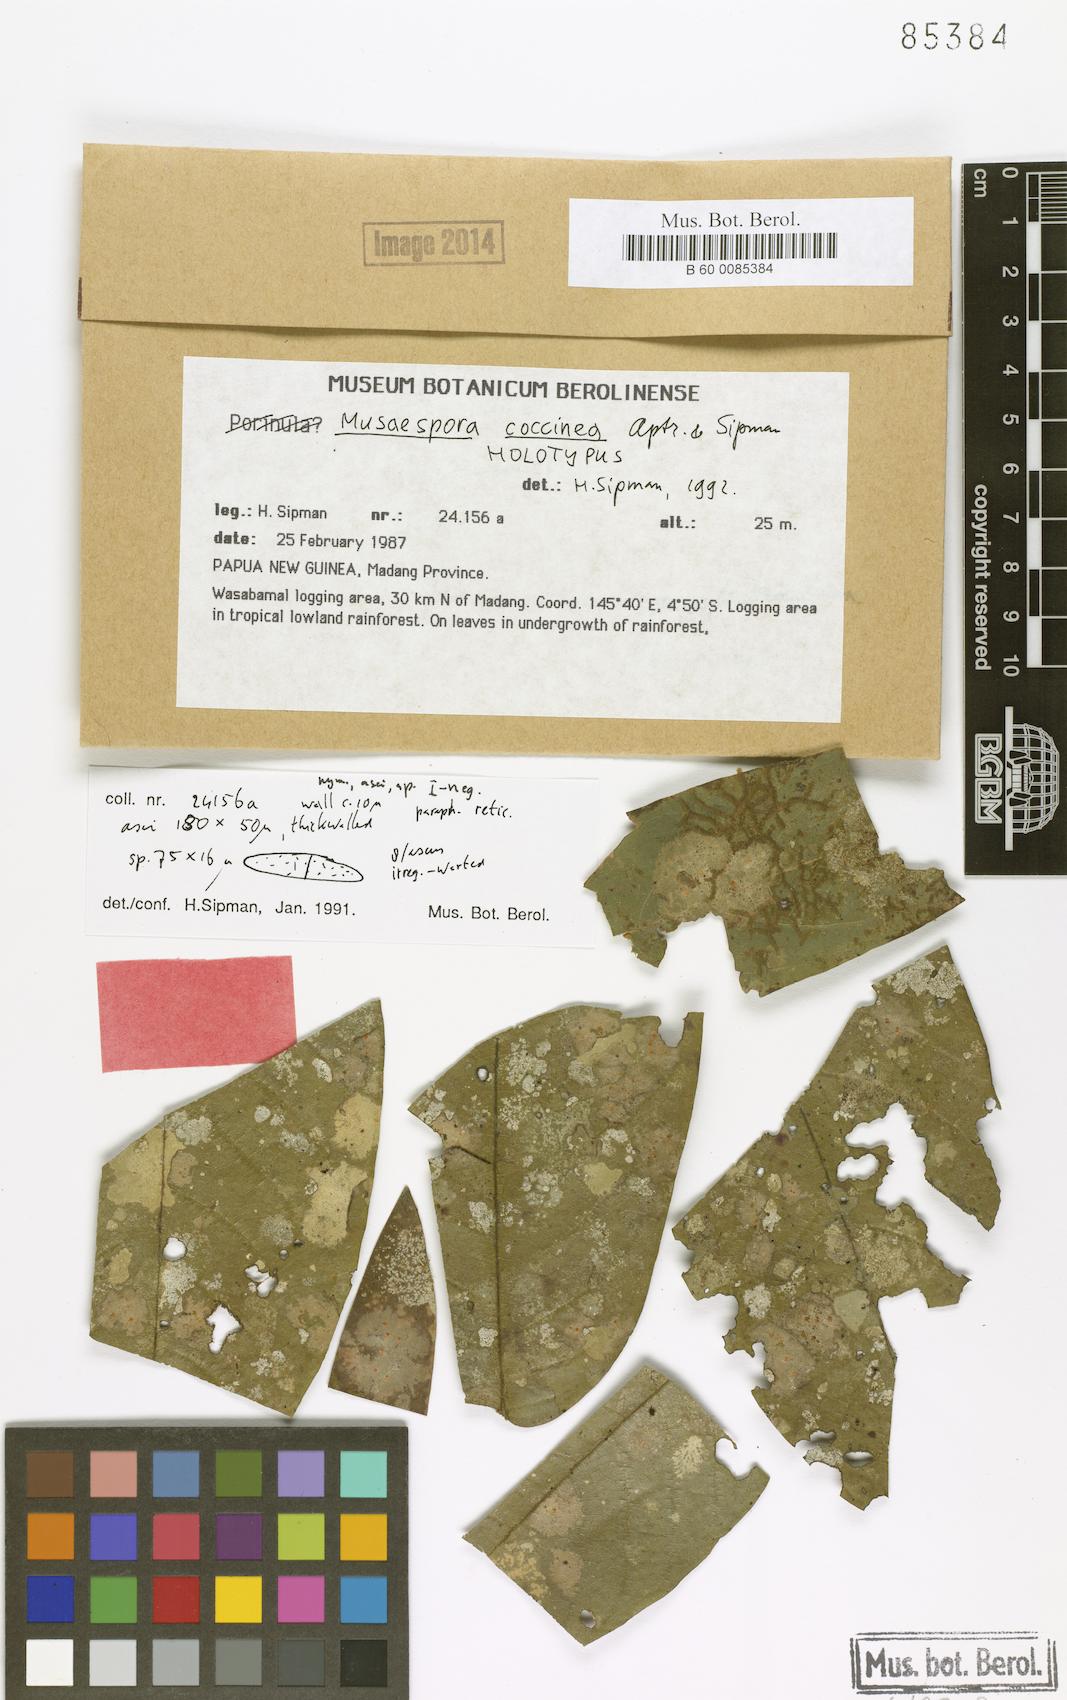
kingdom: Fungi
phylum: Ascomycota
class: Dothideomycetes
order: Monoblastiales
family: Monoblastiaceae
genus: Trypetheliopsis
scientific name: Trypetheliopsis coccinea
